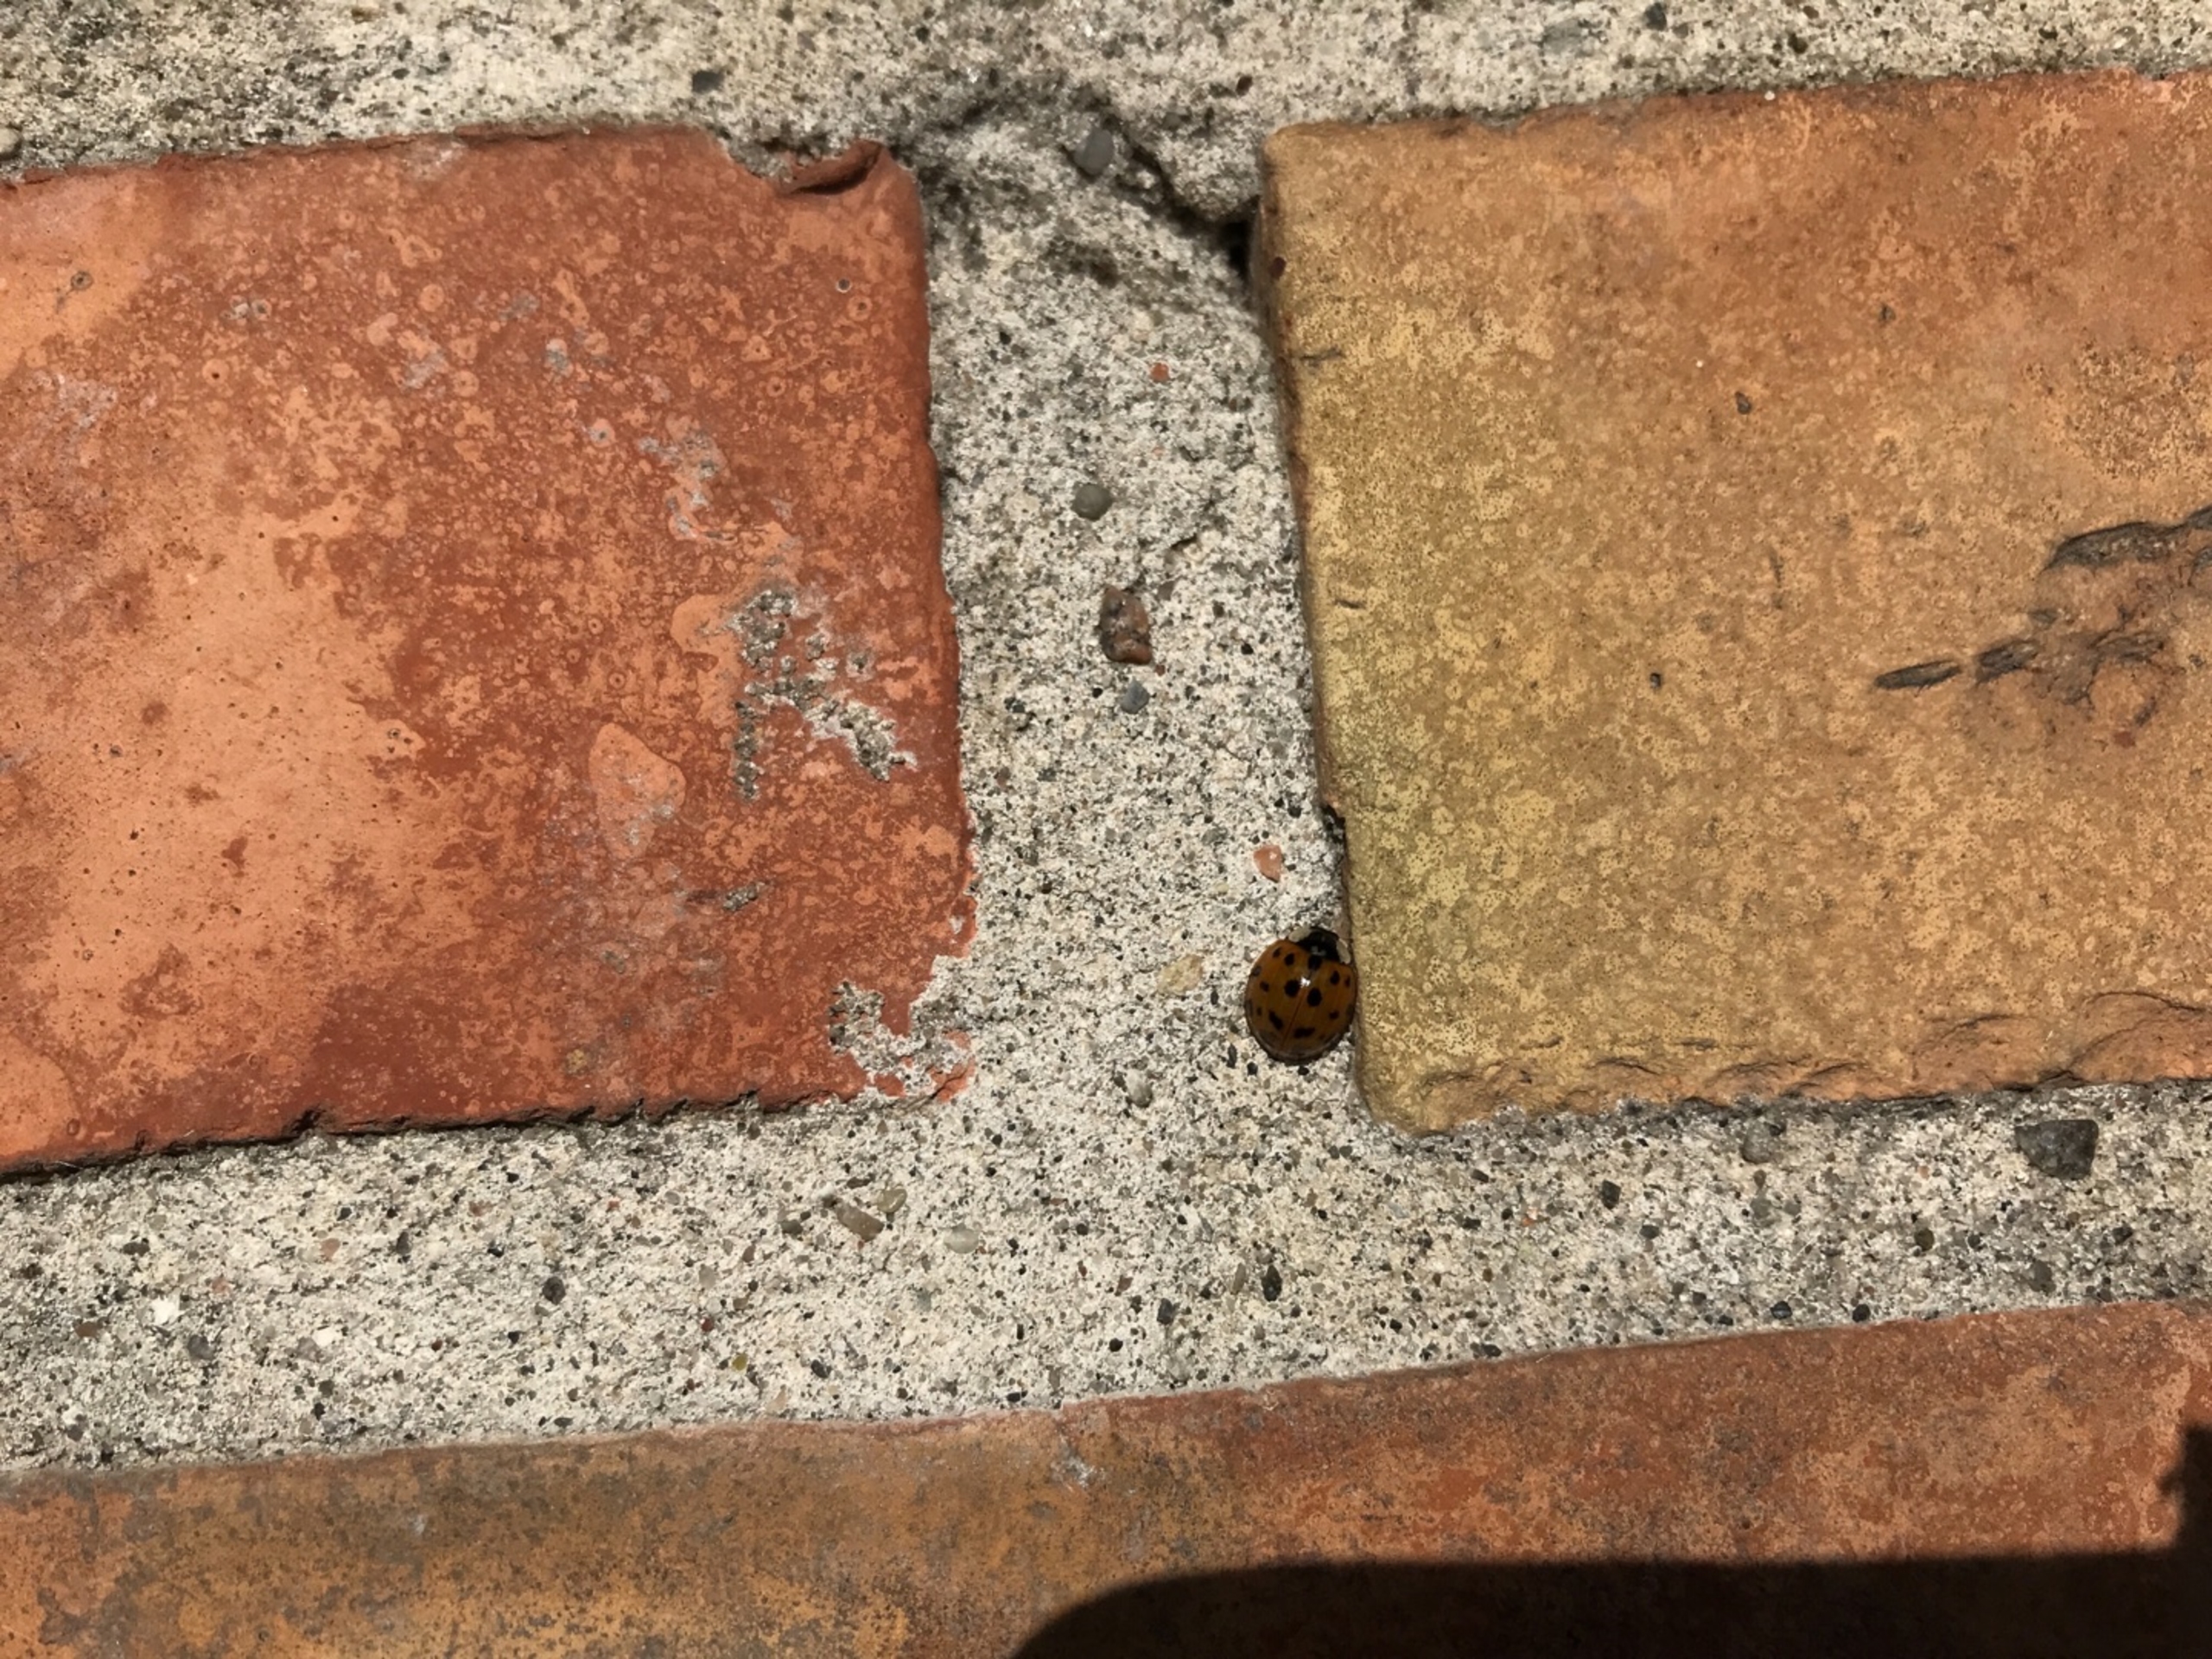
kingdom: Animalia
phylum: Arthropoda
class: Insecta
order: Coleoptera
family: Coccinellidae
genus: Harmonia
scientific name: Harmonia axyridis
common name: Harlekinmariehøne
